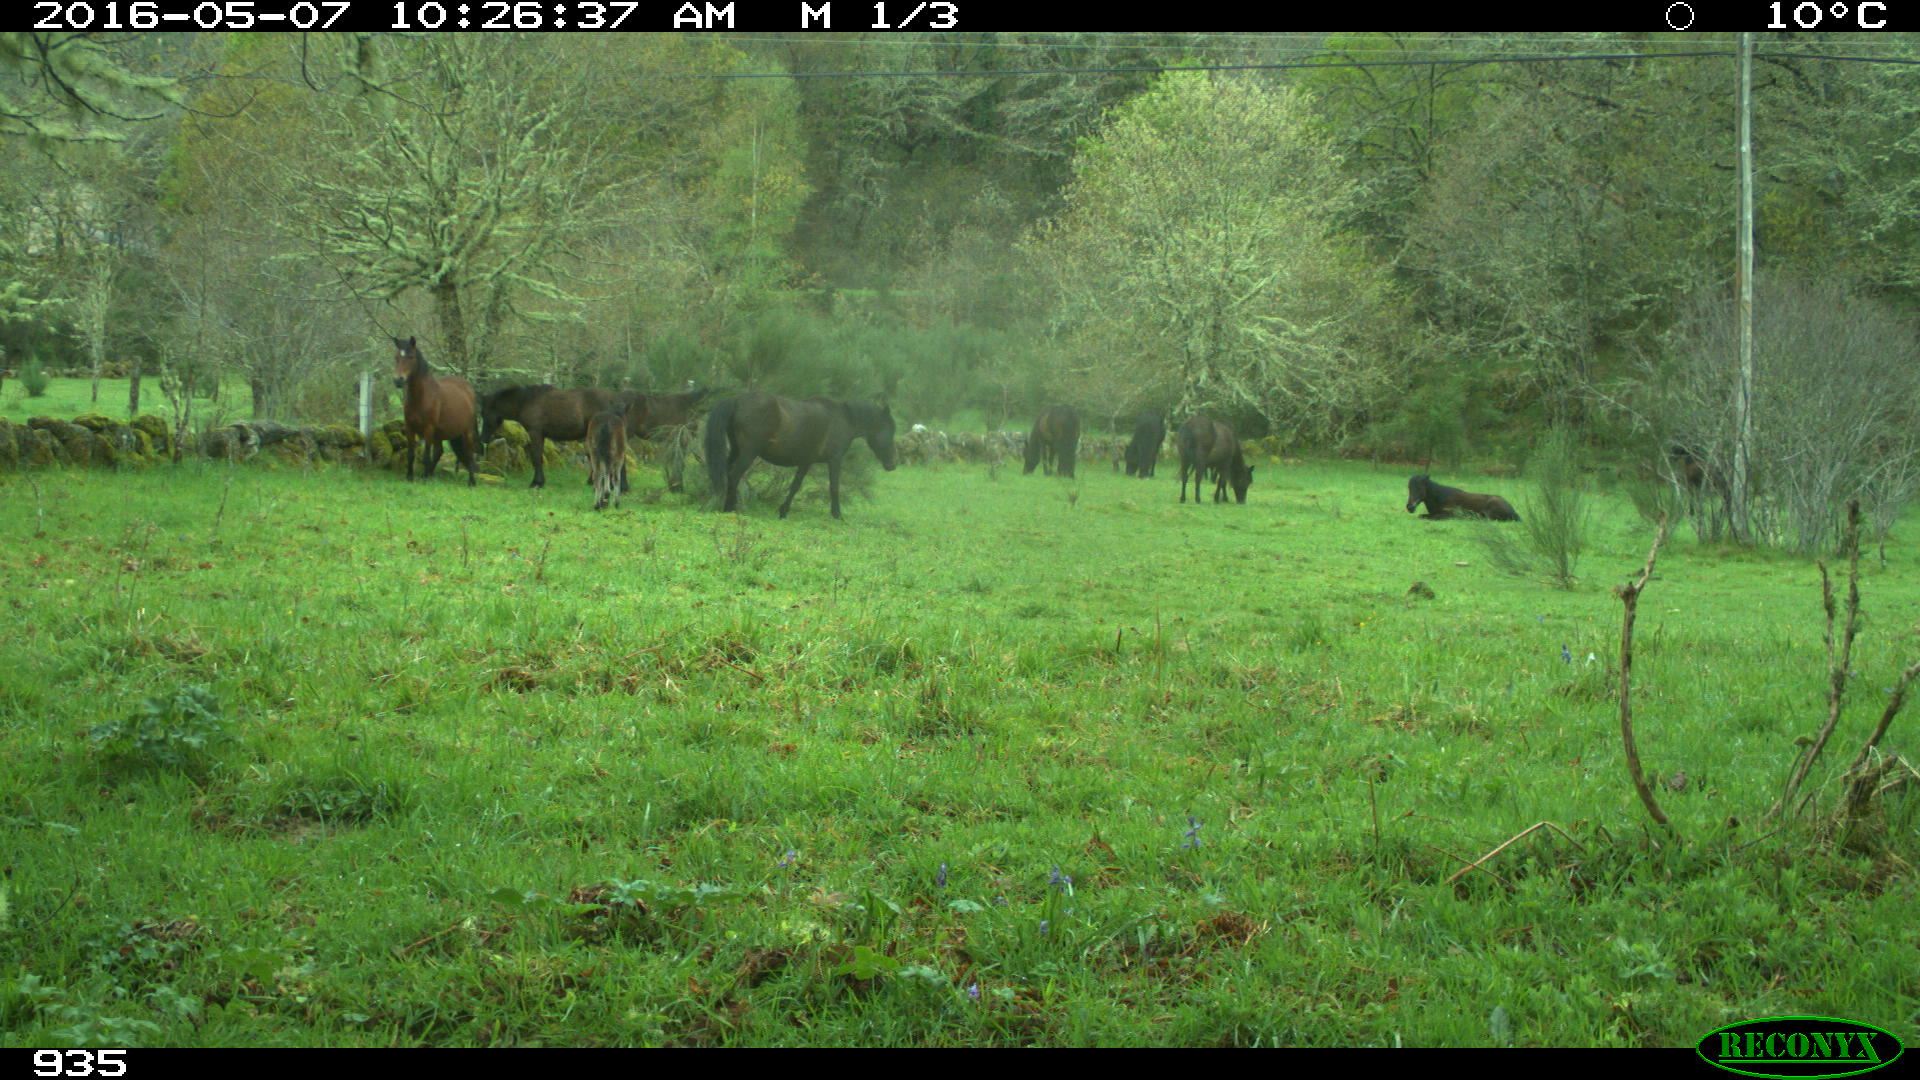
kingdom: Animalia
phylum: Chordata
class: Mammalia
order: Perissodactyla
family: Equidae
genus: Equus
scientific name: Equus caballus
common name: Horse
